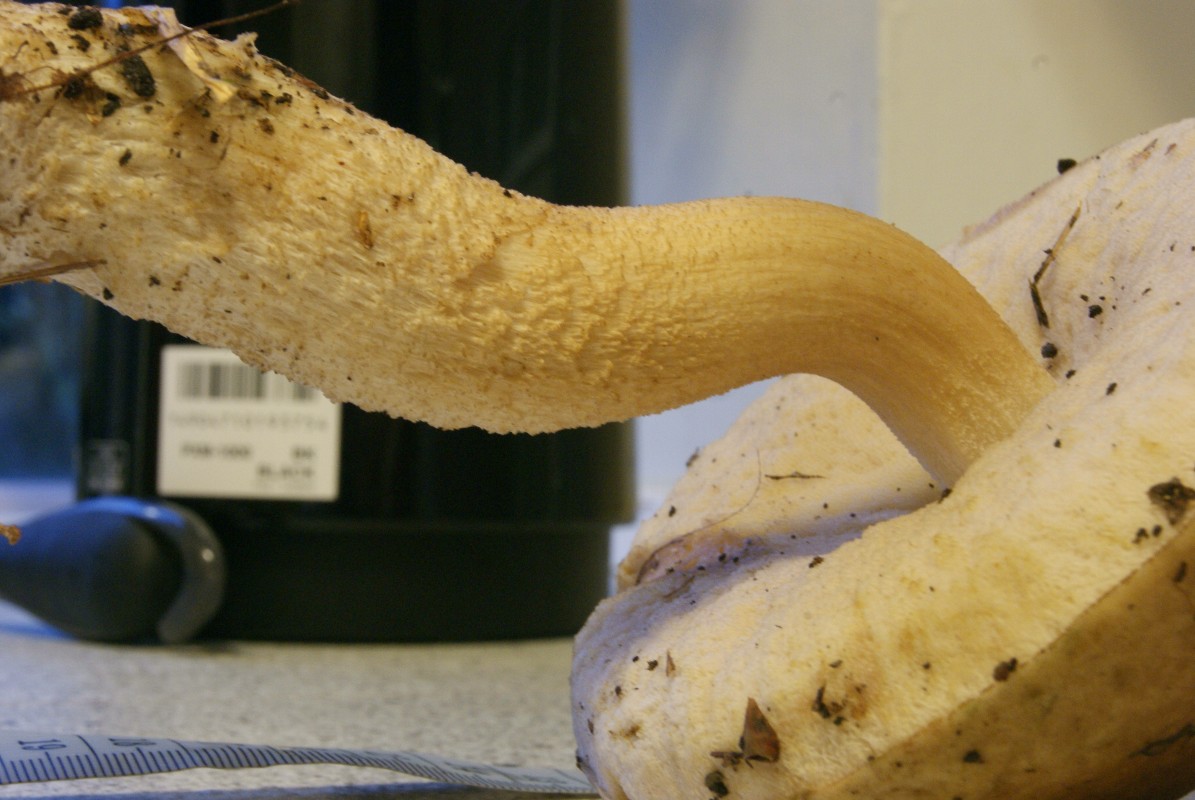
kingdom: Fungi
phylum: Basidiomycota
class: Agaricomycetes
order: Boletales
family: Boletaceae
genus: Leccinum
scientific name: Leccinum
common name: skælrørhat
